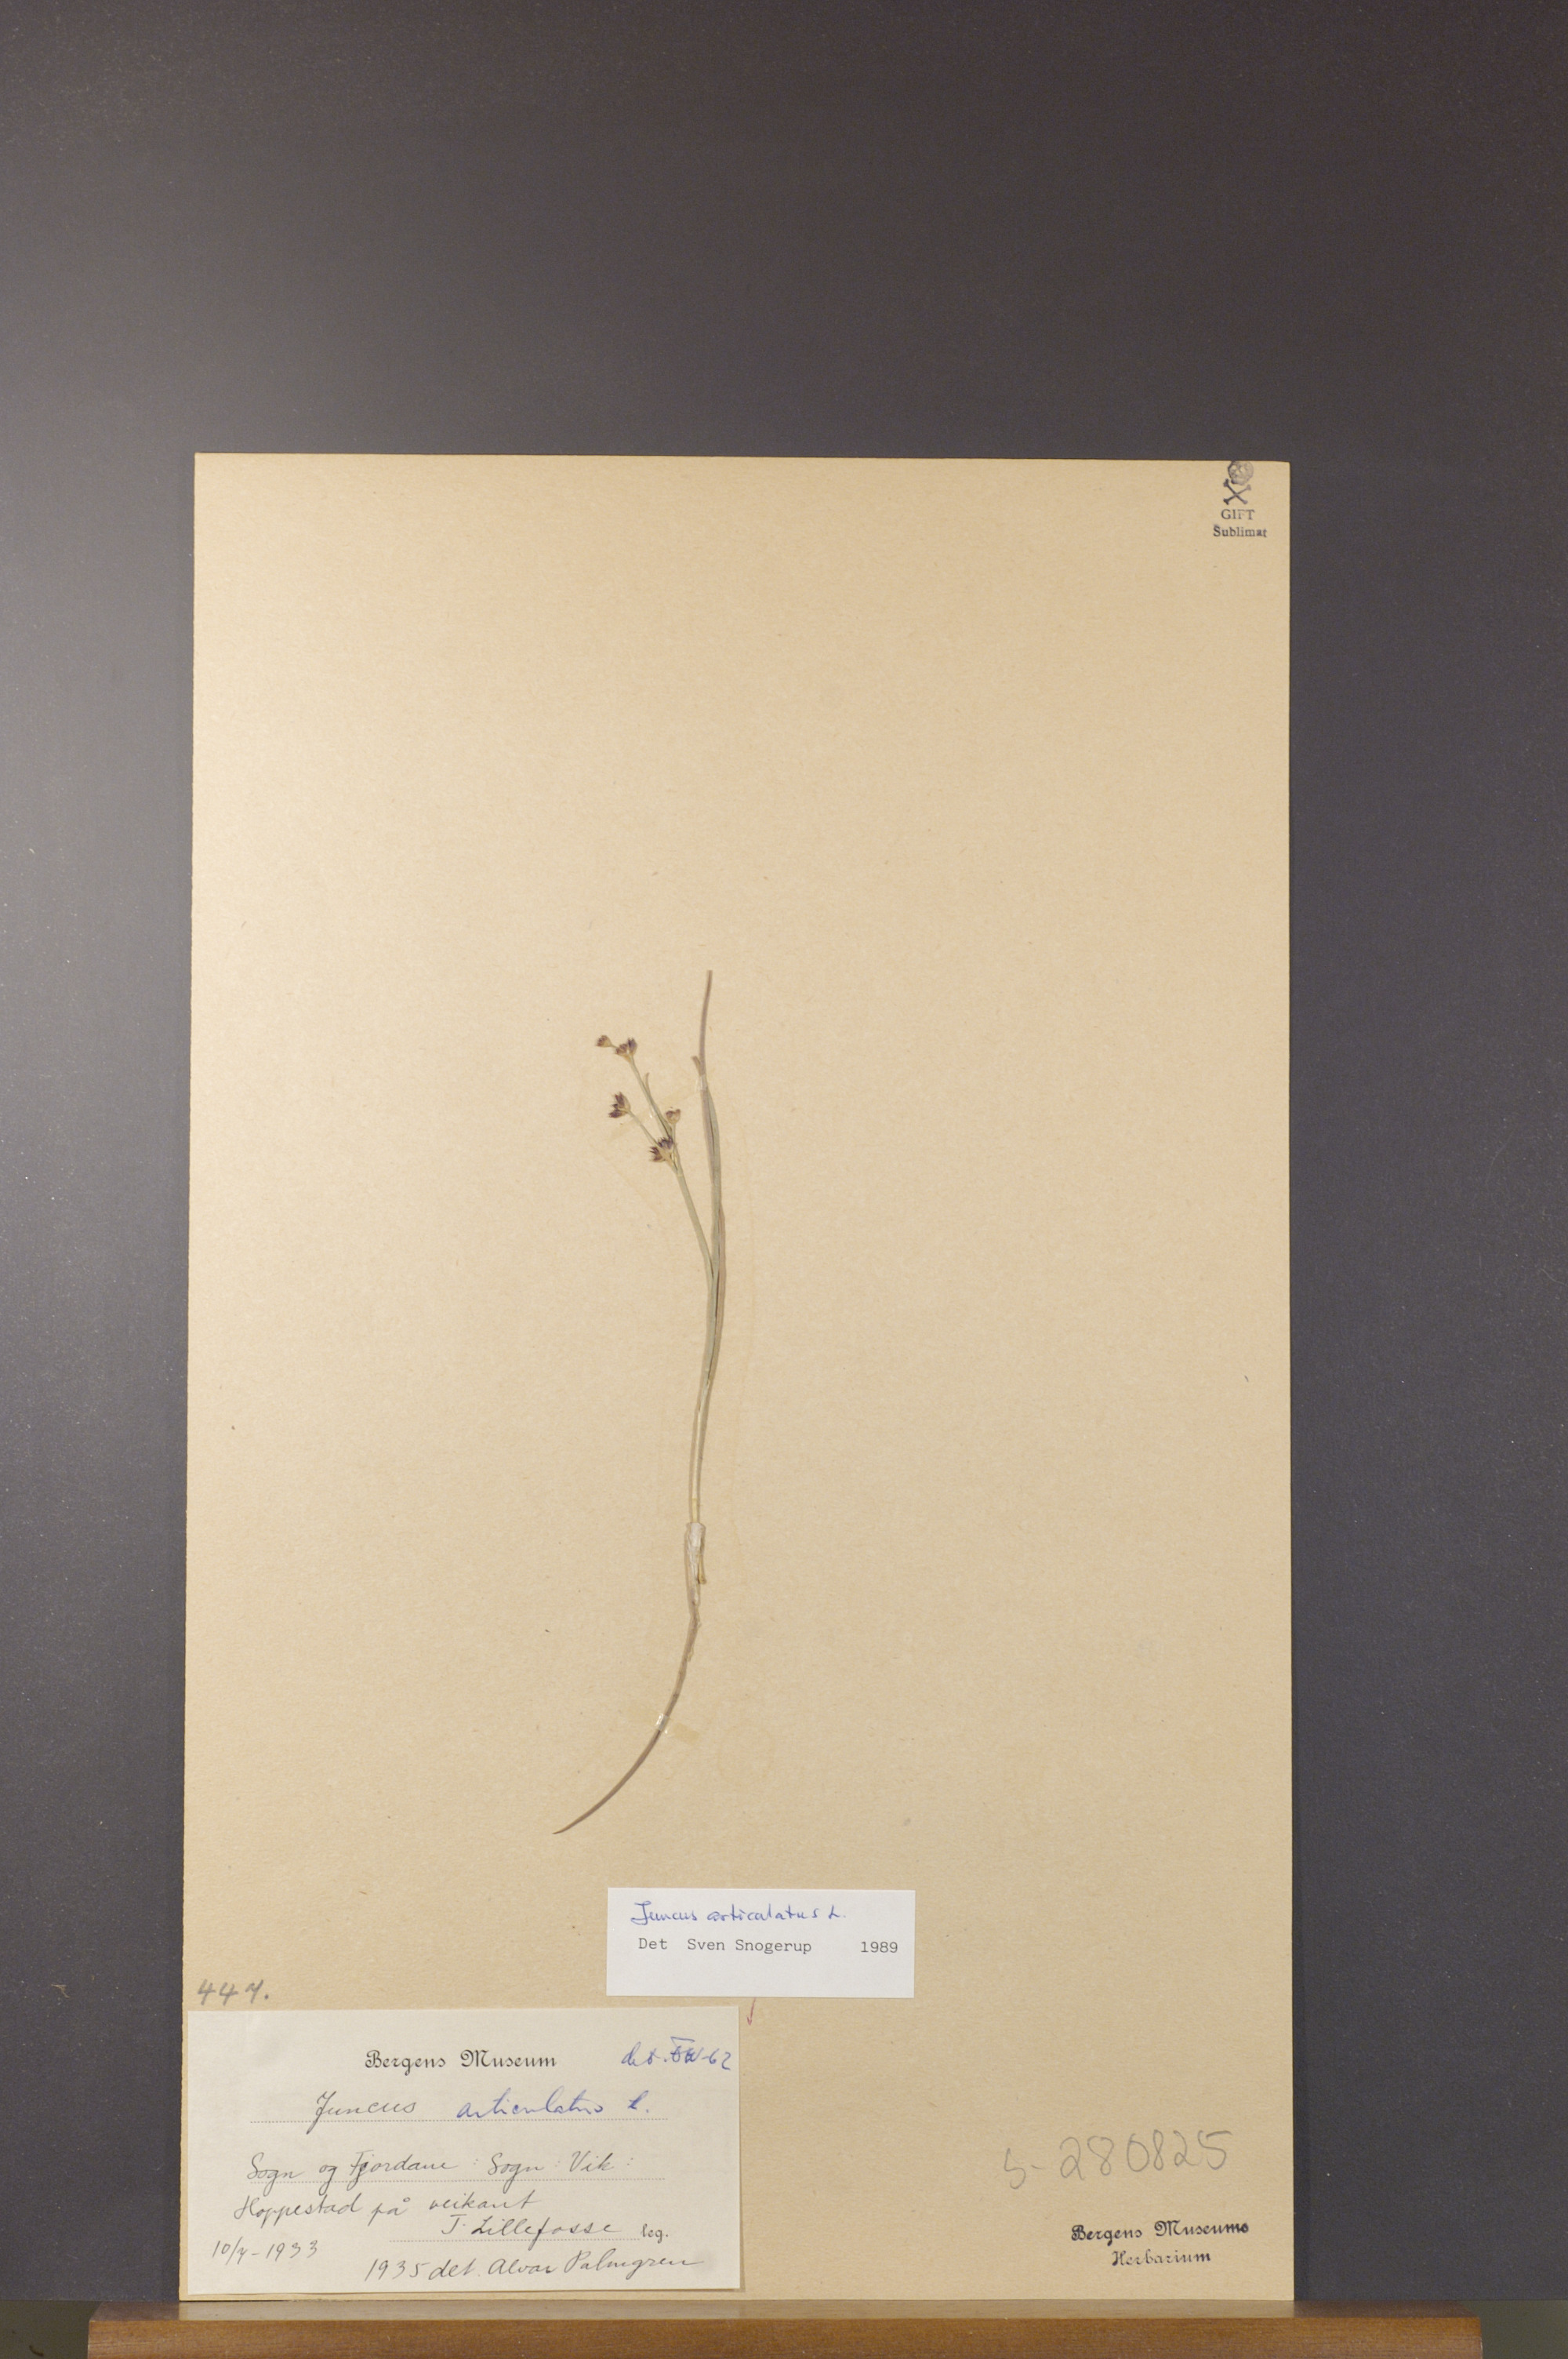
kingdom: Plantae
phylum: Tracheophyta
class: Liliopsida
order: Poales
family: Juncaceae
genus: Juncus
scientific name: Juncus articulatus
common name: Jointed rush
